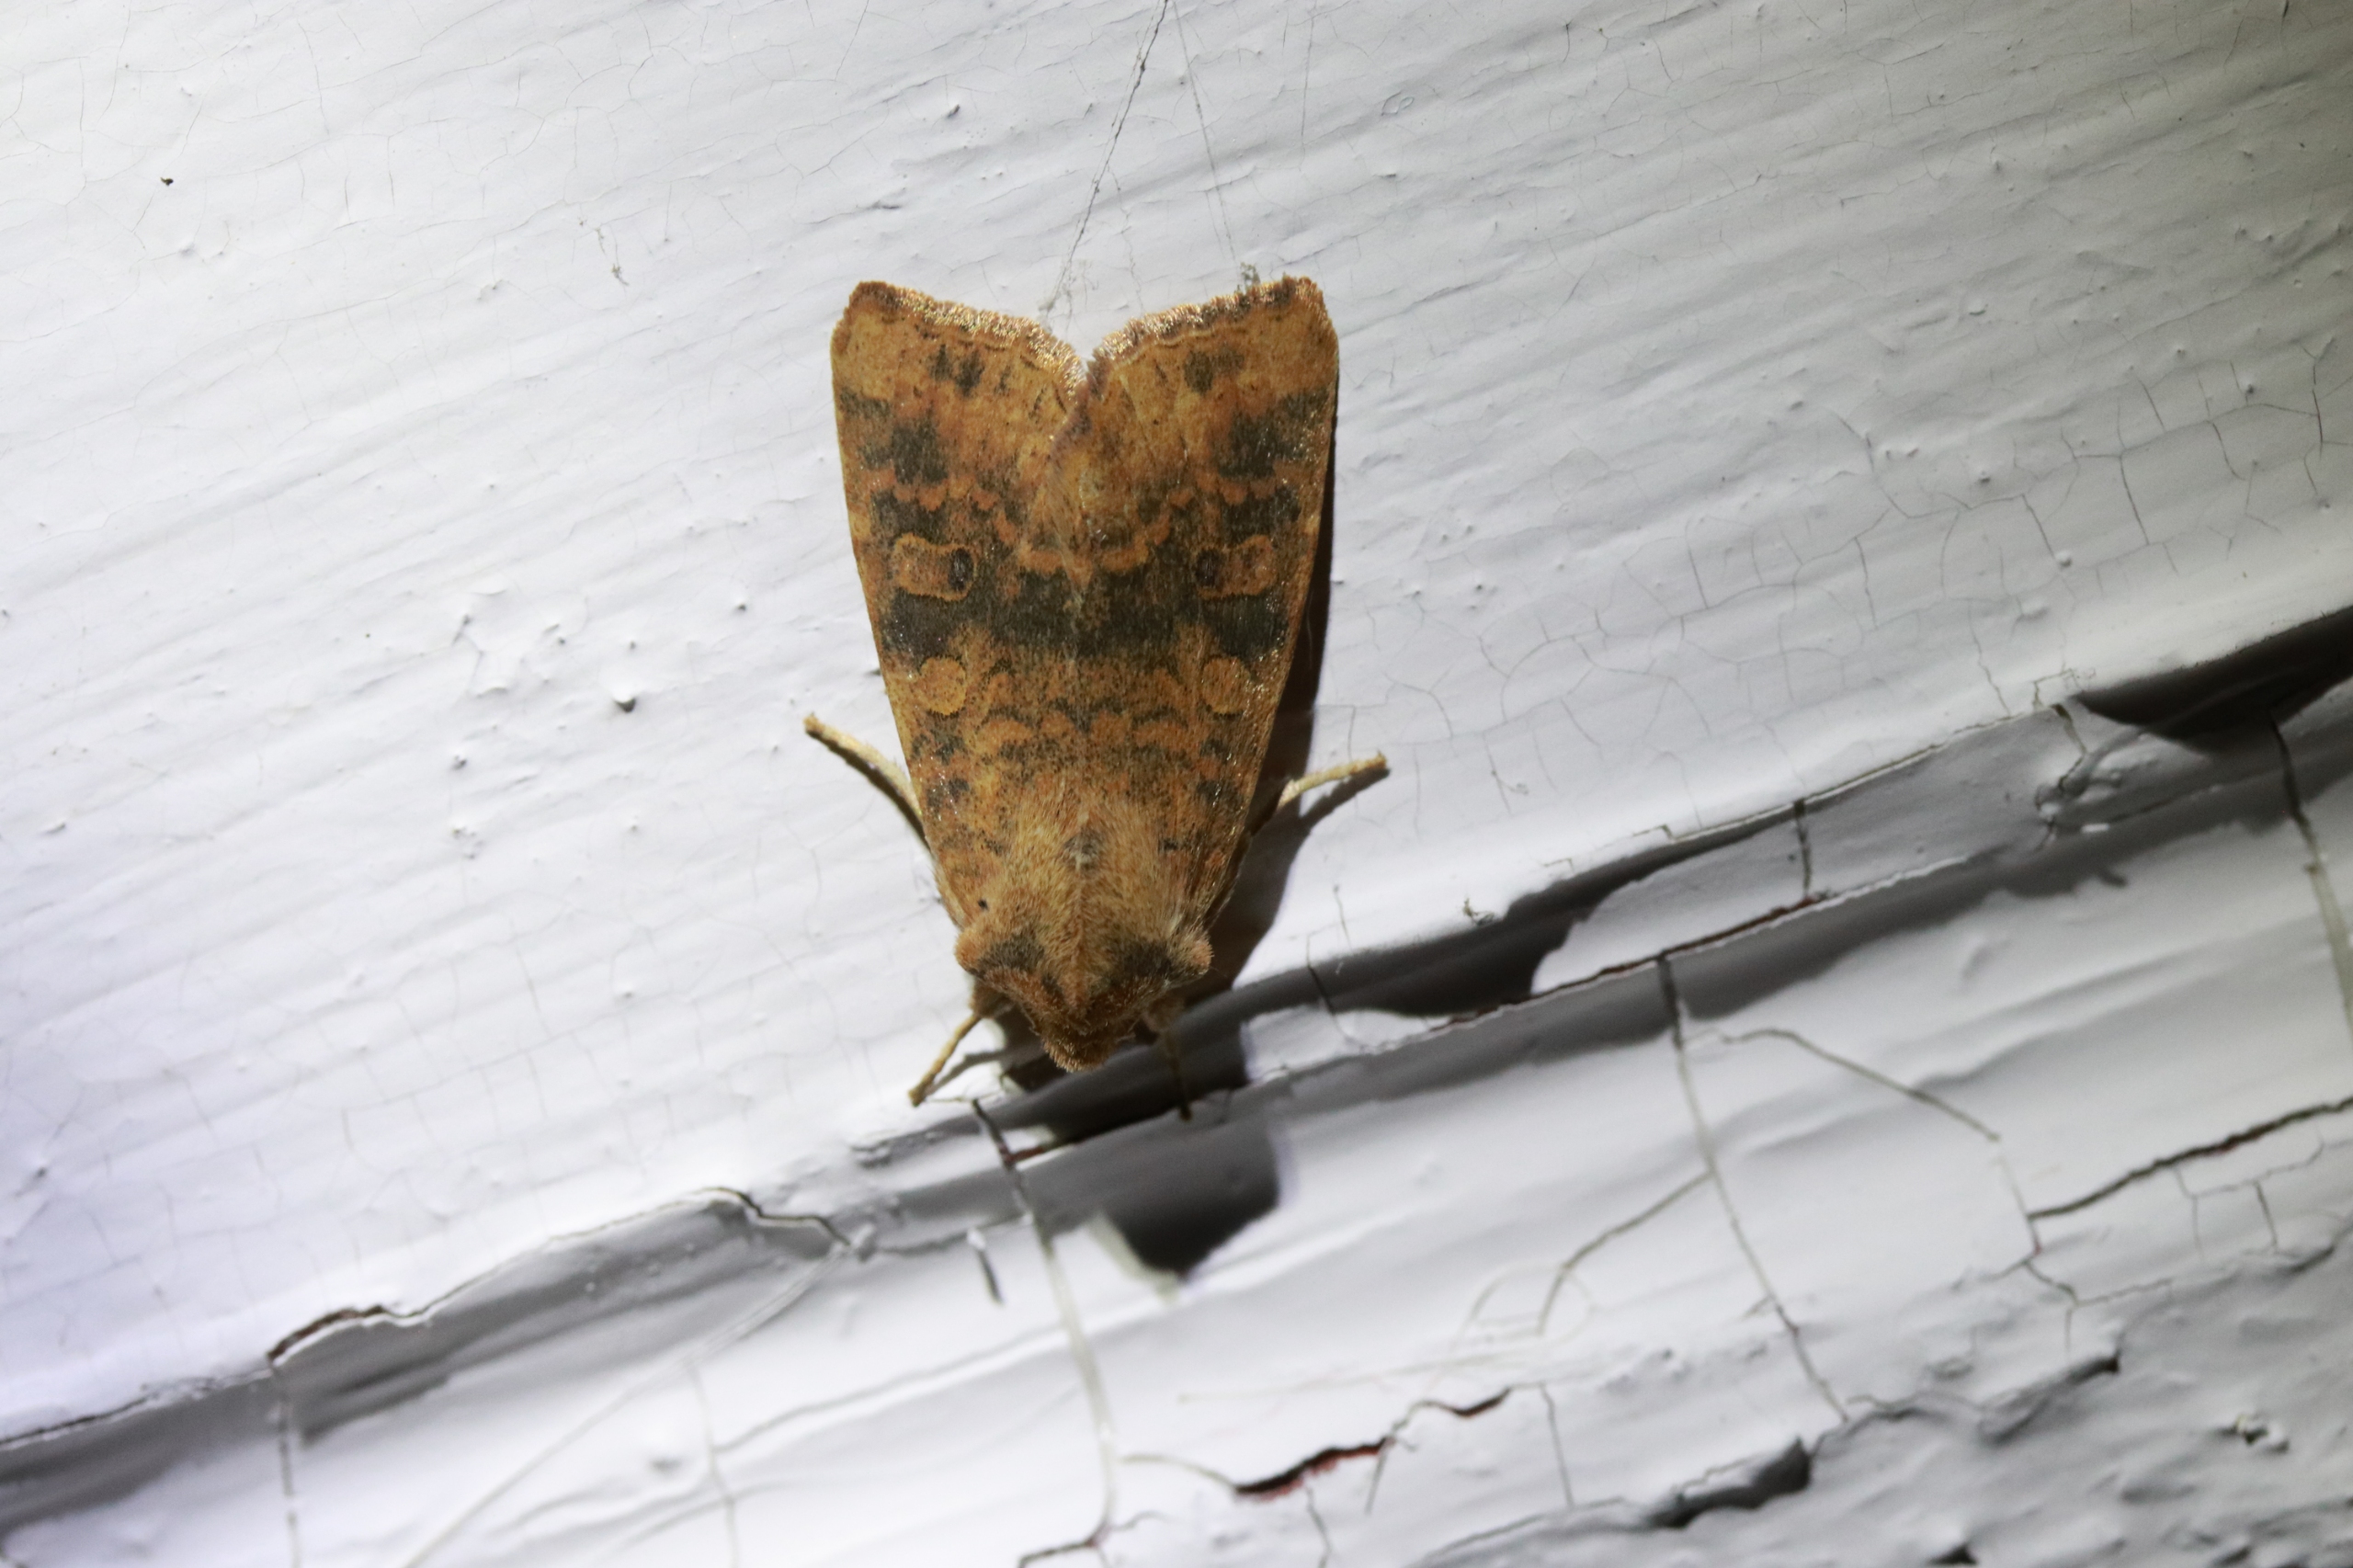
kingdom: Animalia
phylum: Arthropoda
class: Insecta
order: Lepidoptera
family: Noctuidae
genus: Xanthia
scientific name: Xanthia gilvago
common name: Elmeguldugle
